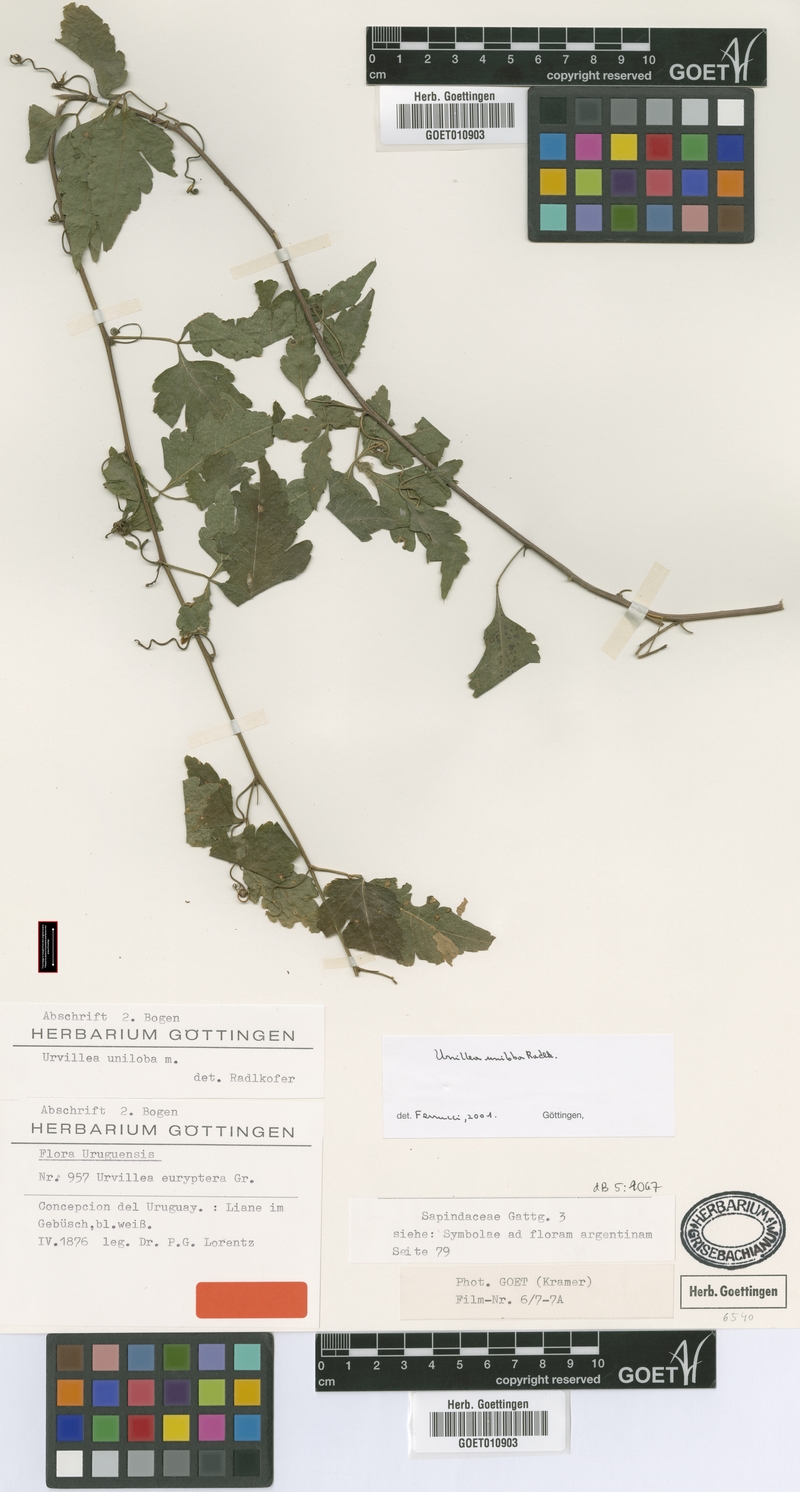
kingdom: Plantae
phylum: Tracheophyta
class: Magnoliopsida
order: Sapindales
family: Sapindaceae
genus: Urvillea
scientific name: Urvillea uniloba
